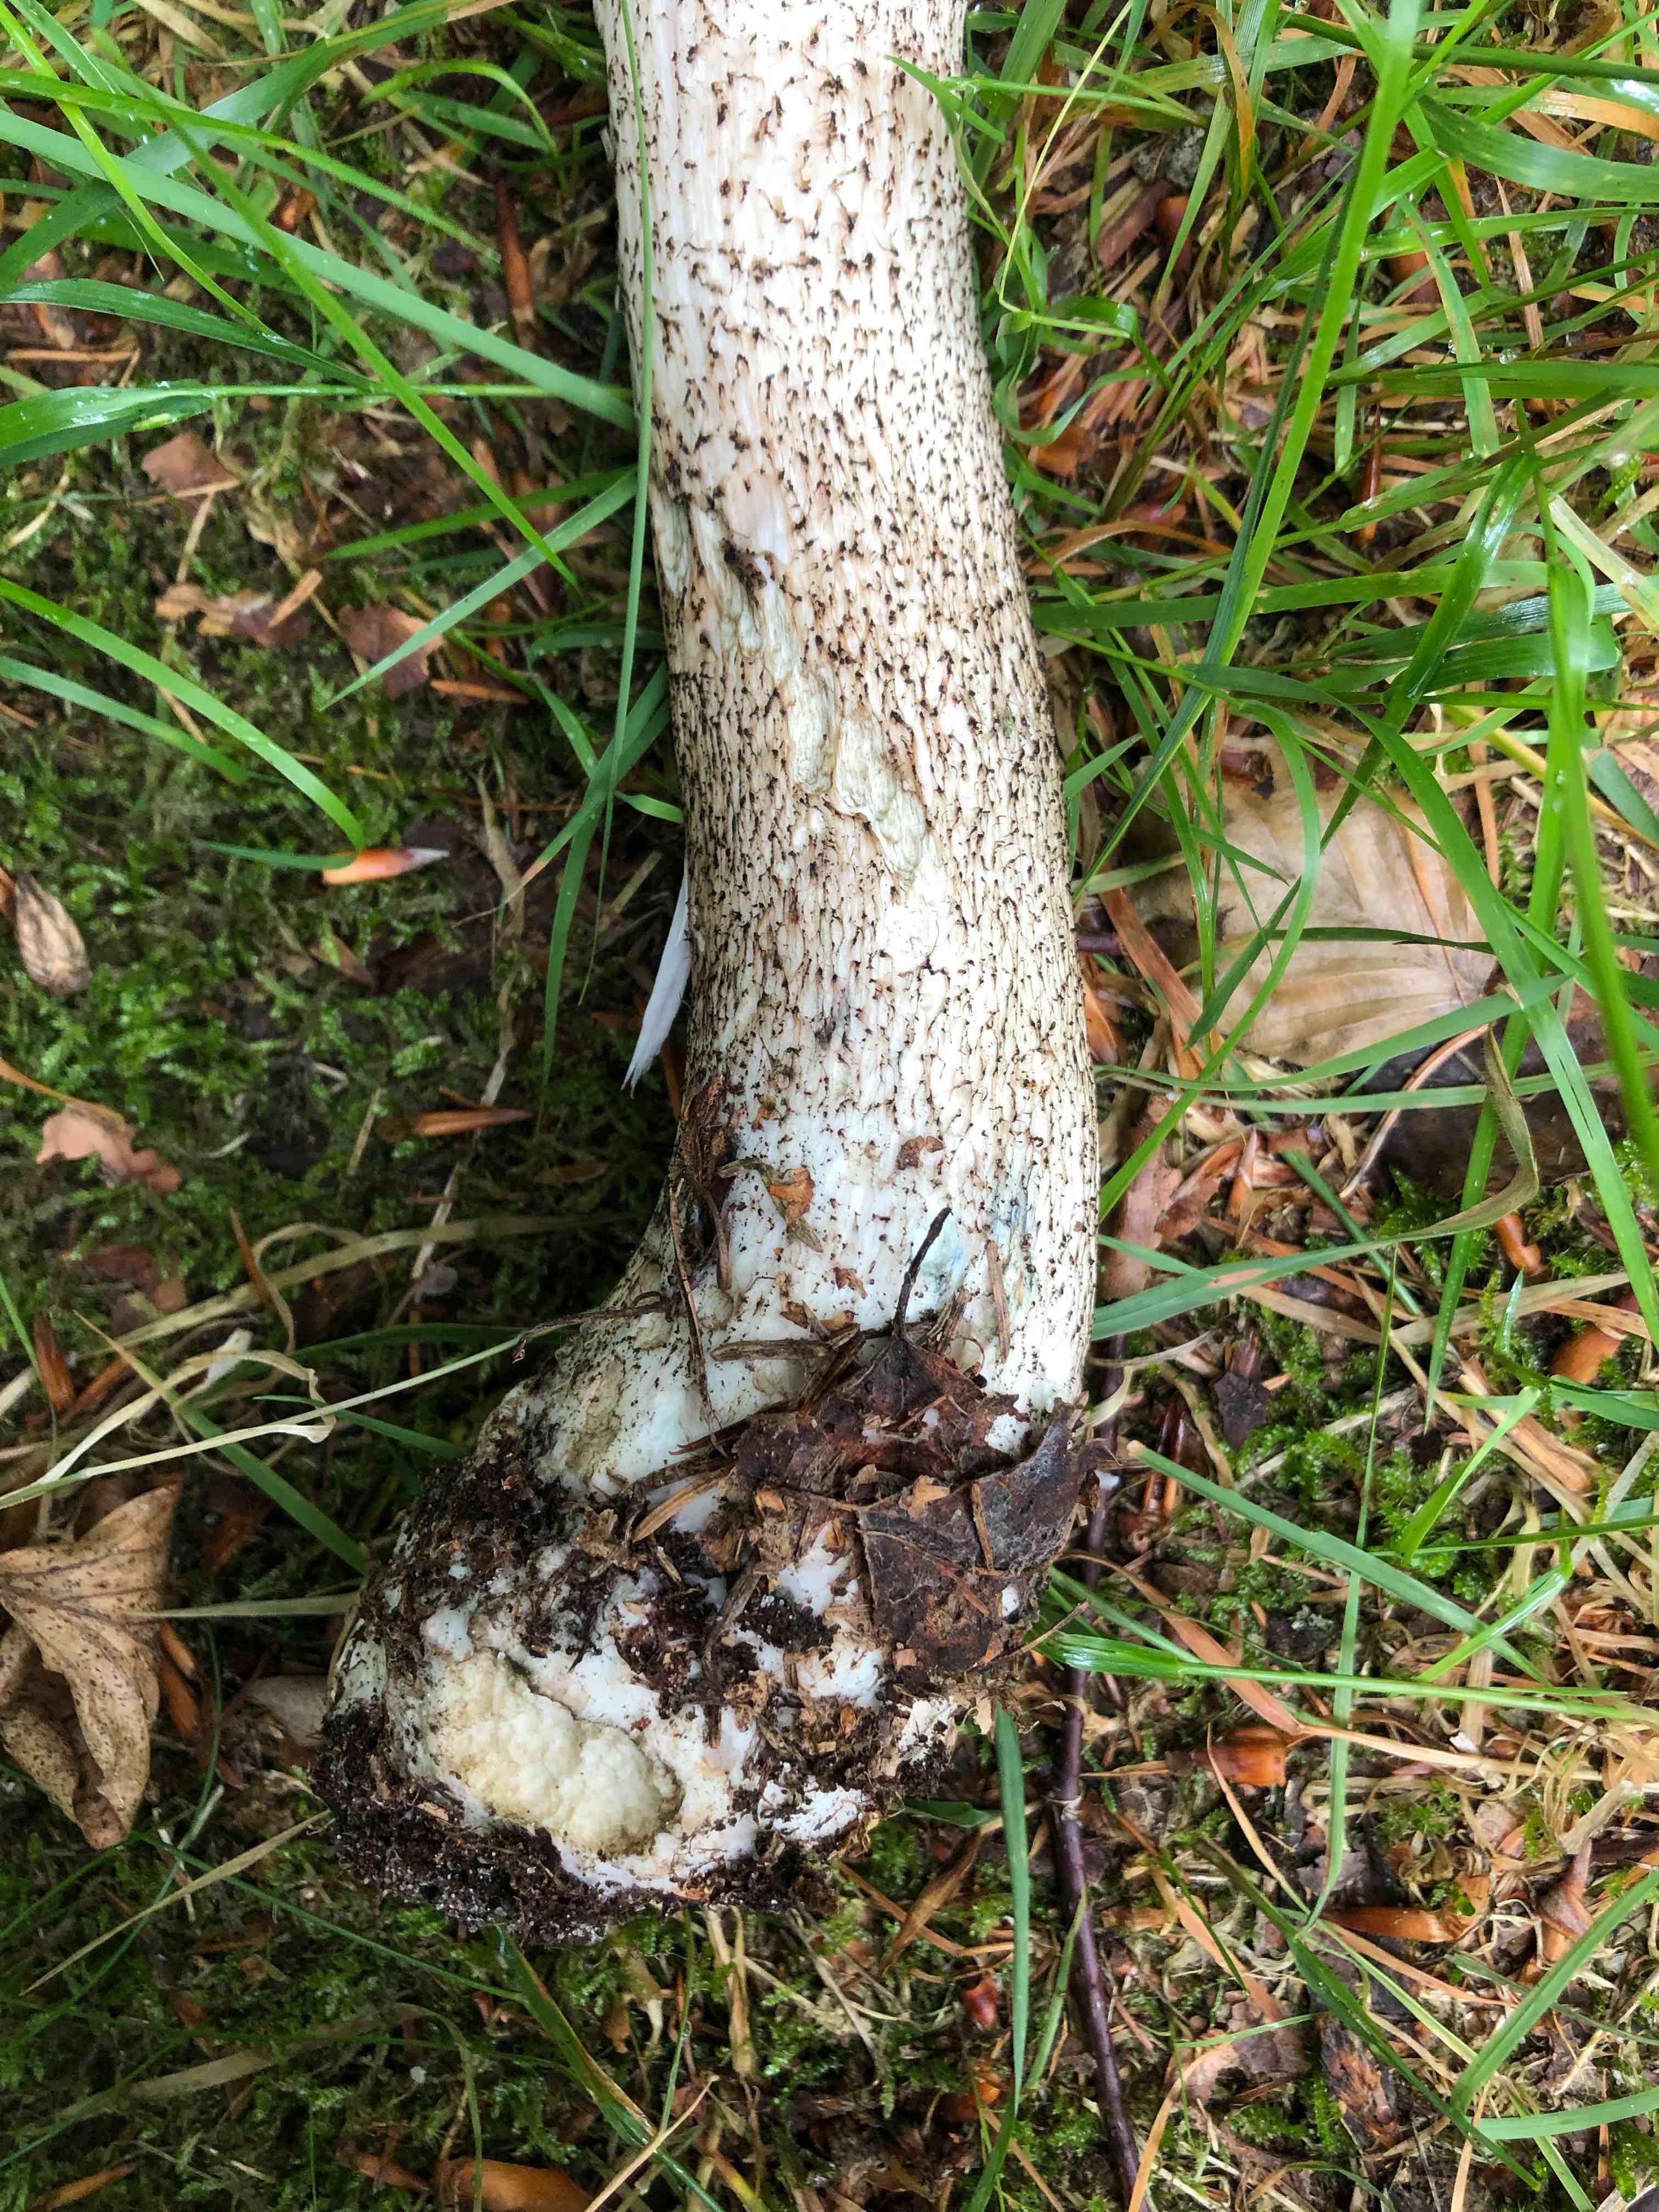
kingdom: Fungi
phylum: Basidiomycota
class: Agaricomycetes
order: Boletales
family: Boletaceae
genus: Leccinum
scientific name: Leccinum versipelle
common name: orange skælrørhat
